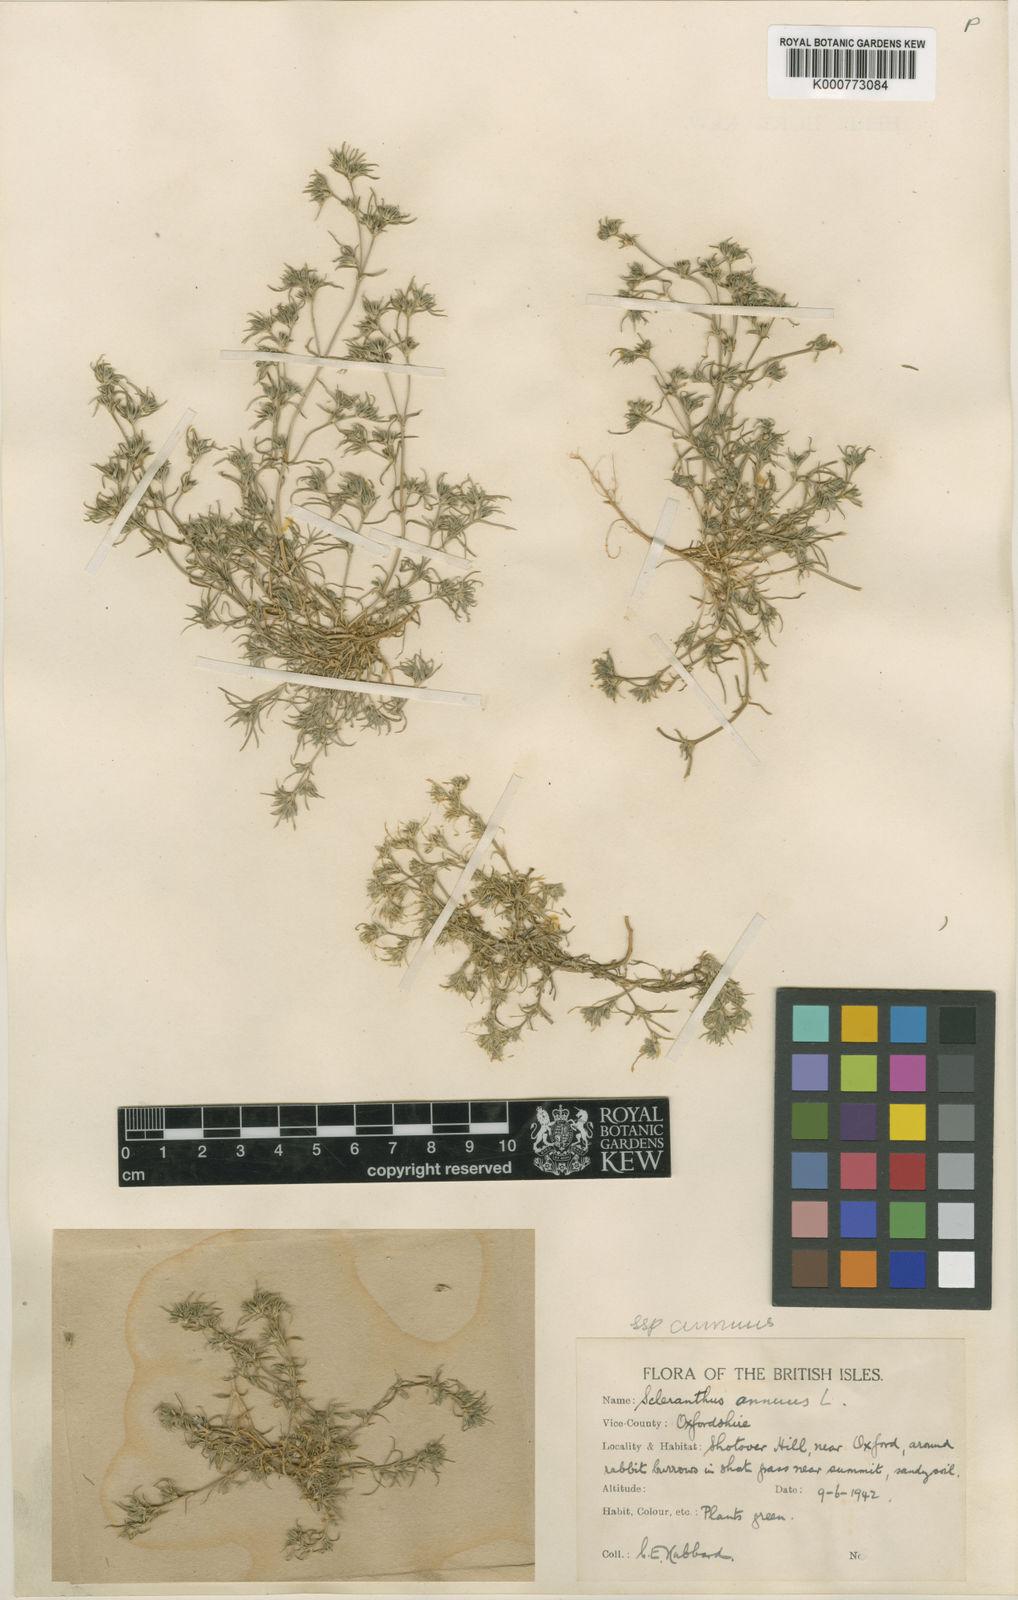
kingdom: Plantae
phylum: Tracheophyta
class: Magnoliopsida
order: Caryophyllales
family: Caryophyllaceae
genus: Scleranthus
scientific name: Scleranthus annuus
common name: Annual knawel
